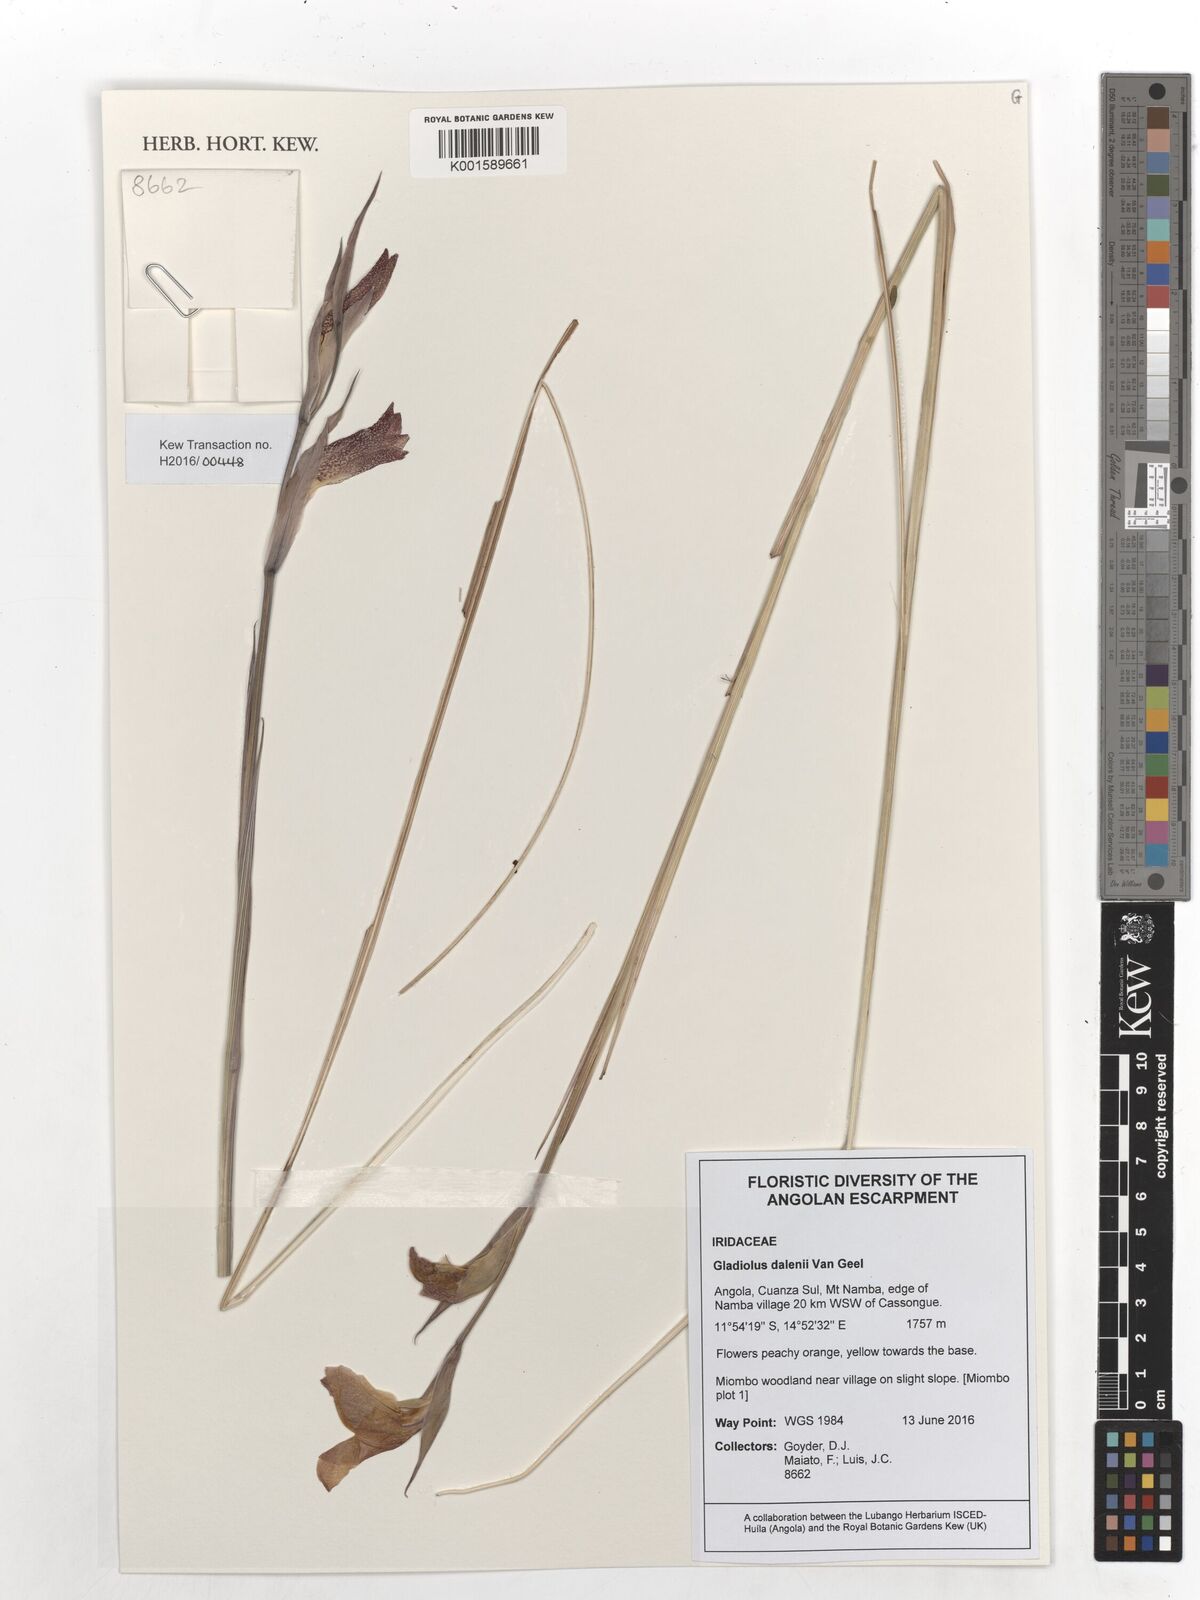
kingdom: Plantae
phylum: Tracheophyta
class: Liliopsida
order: Asparagales
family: Iridaceae
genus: Gladiolus
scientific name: Gladiolus dalenii
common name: Cornflag
